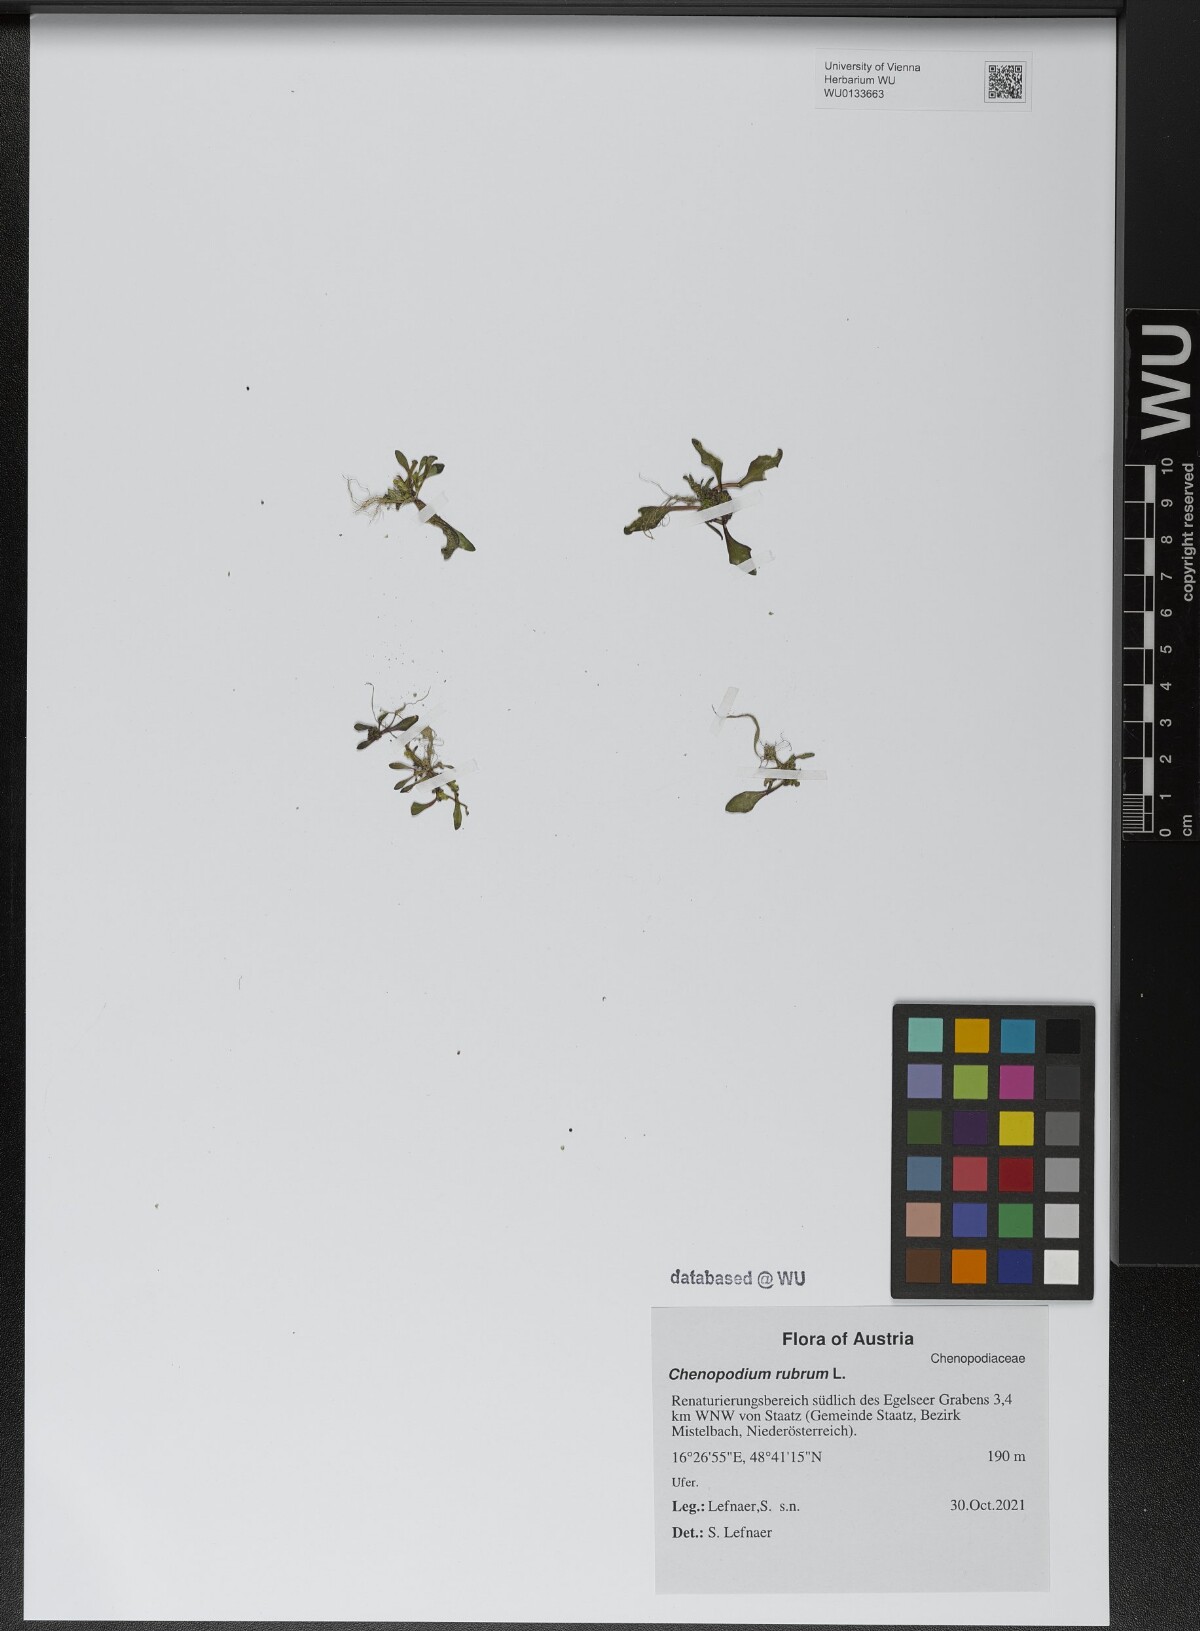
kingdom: Plantae
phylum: Tracheophyta
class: Magnoliopsida
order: Caryophyllales
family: Amaranthaceae
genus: Oxybasis
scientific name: Oxybasis rubra
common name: Red goosefoot
